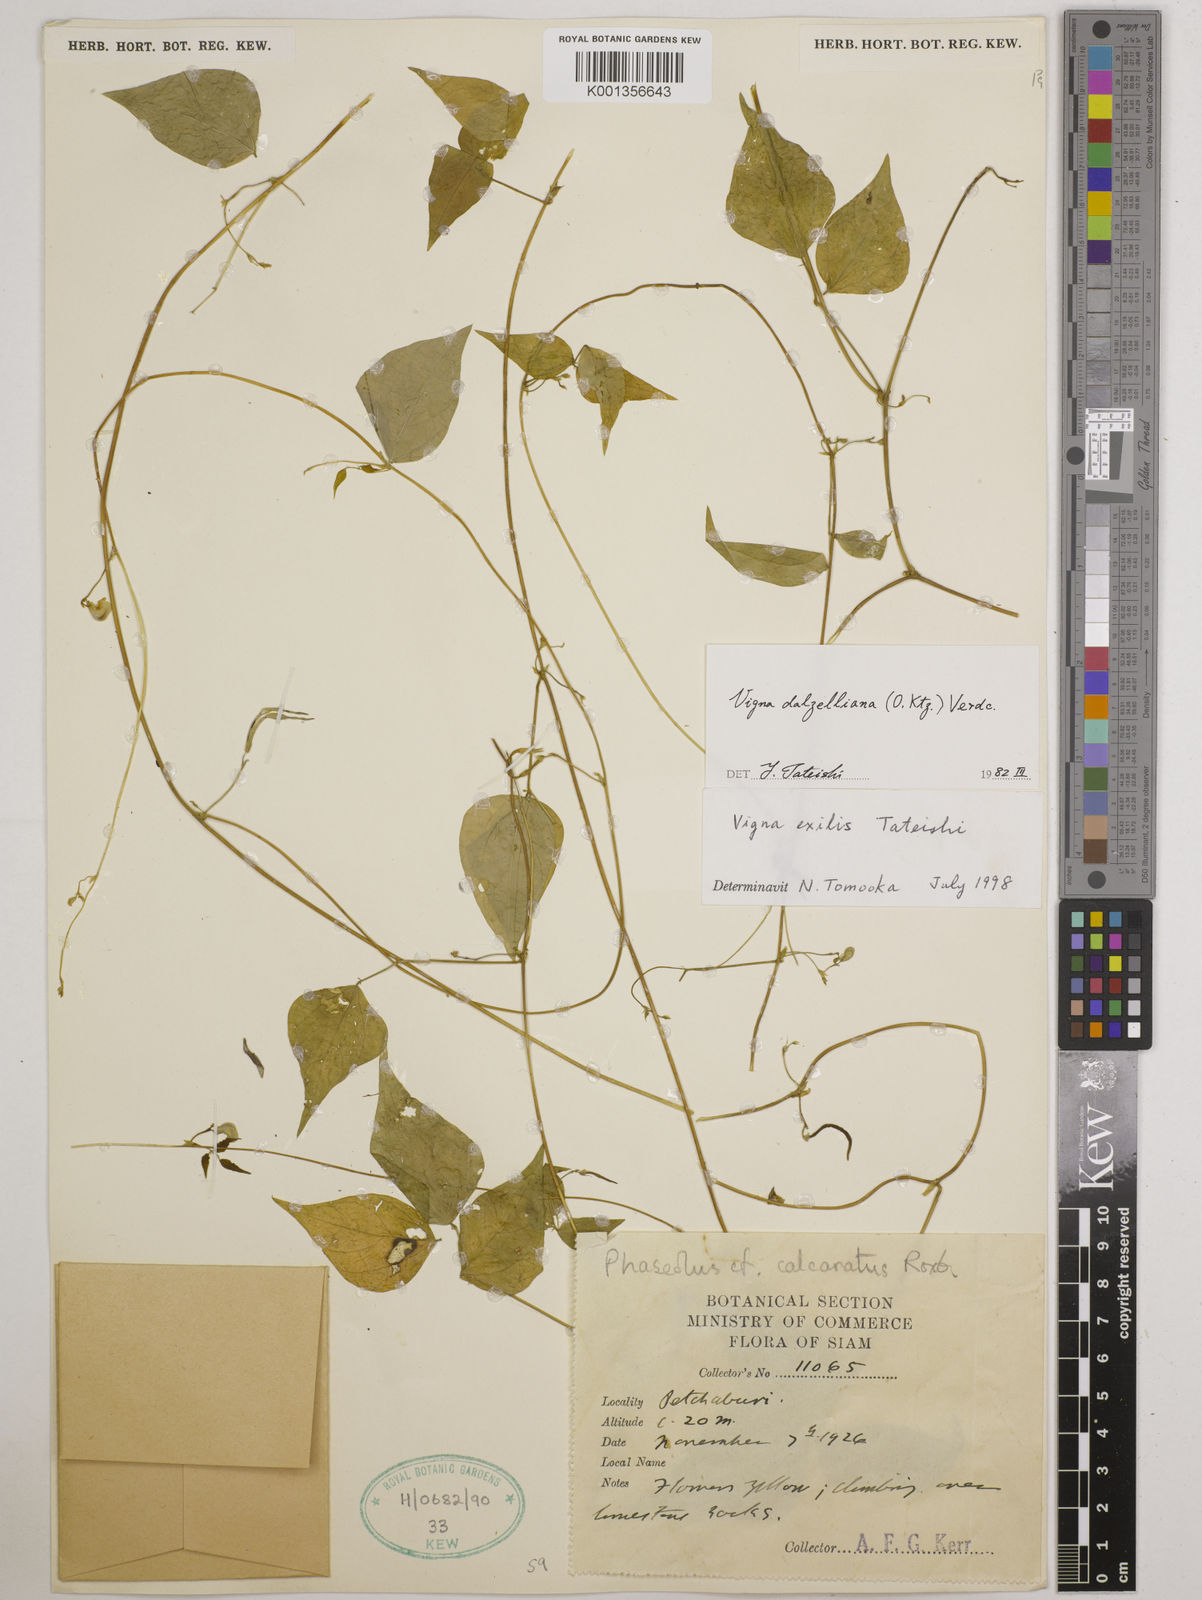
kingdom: Plantae
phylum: Tracheophyta
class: Magnoliopsida
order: Fabales
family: Fabaceae
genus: Vigna
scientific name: Vigna dalzelliana
